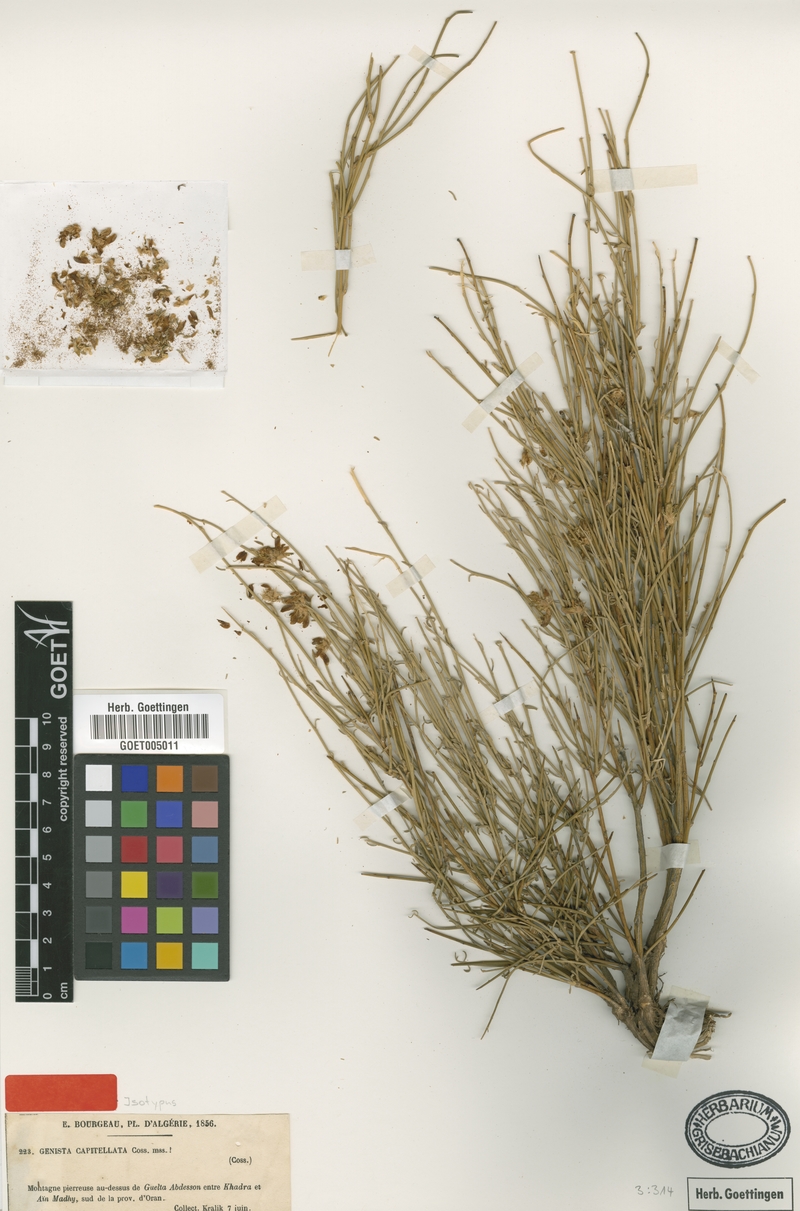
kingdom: Plantae
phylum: Tracheophyta
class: Magnoliopsida
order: Fabales
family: Fabaceae
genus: Genista
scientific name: Genista capitellata
